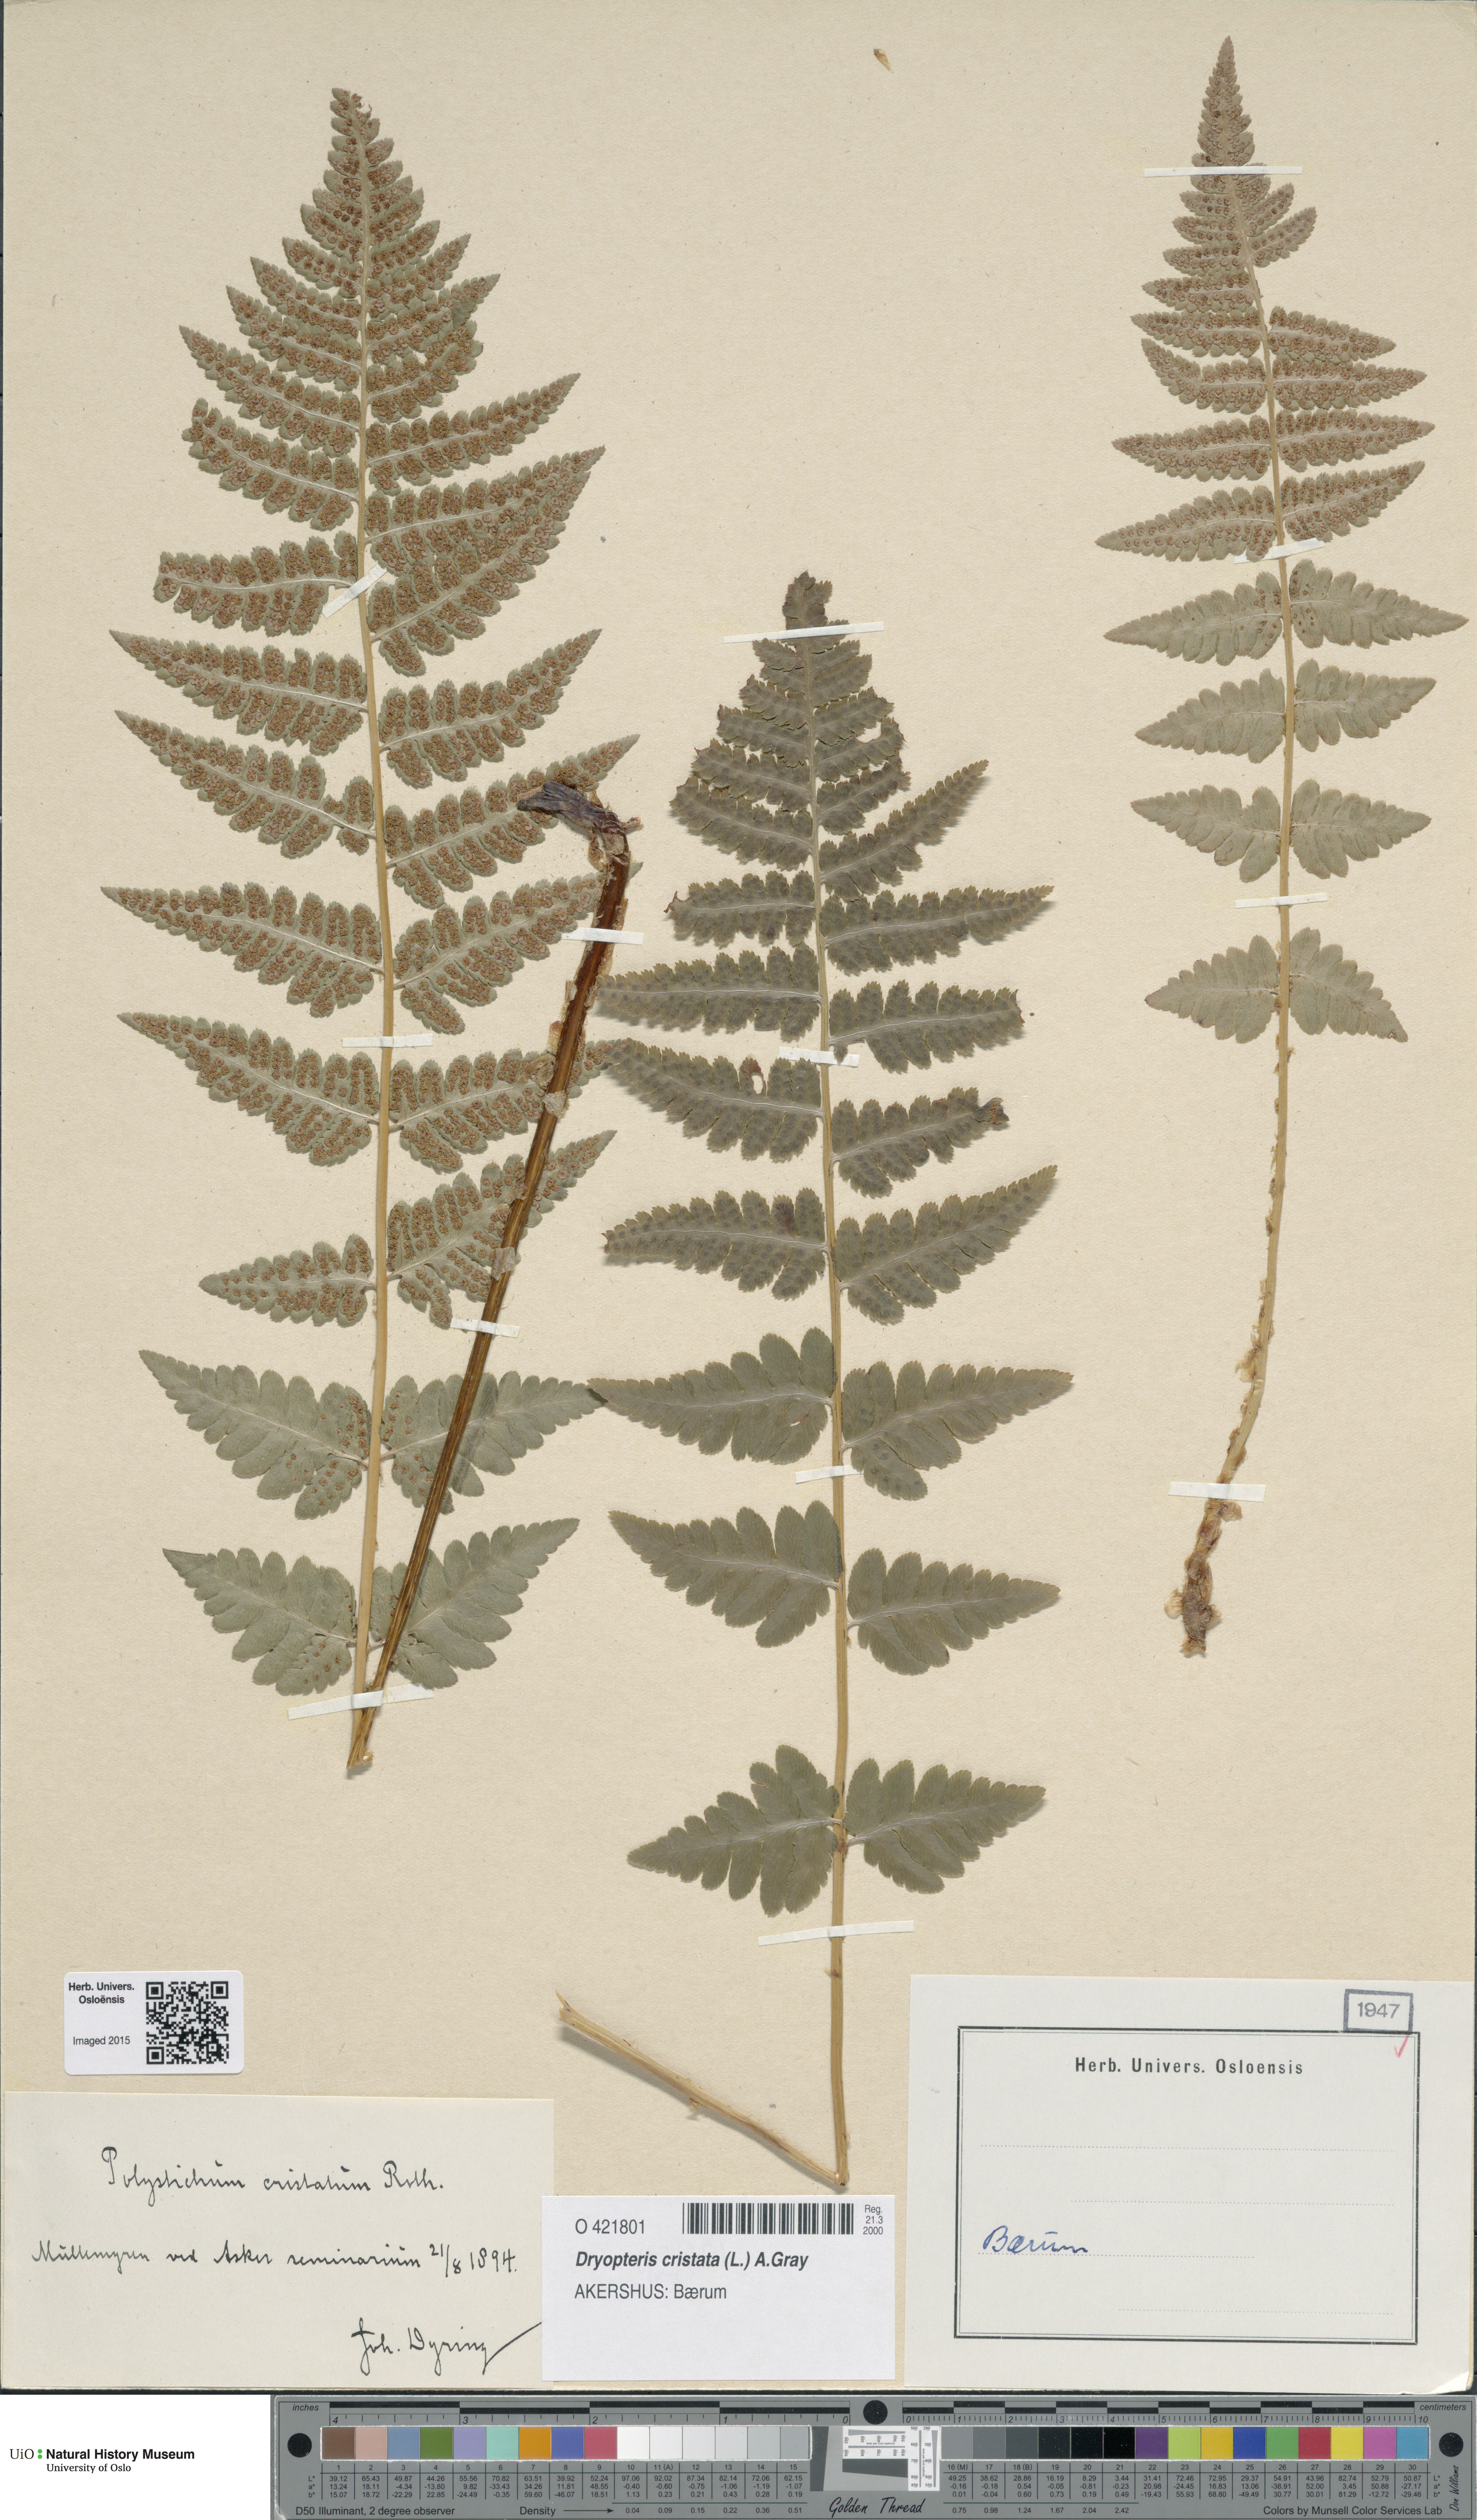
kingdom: Plantae
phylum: Tracheophyta
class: Polypodiopsida
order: Polypodiales
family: Dryopteridaceae
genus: Dryopteris
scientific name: Dryopteris cristata
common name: Crested wood fern
